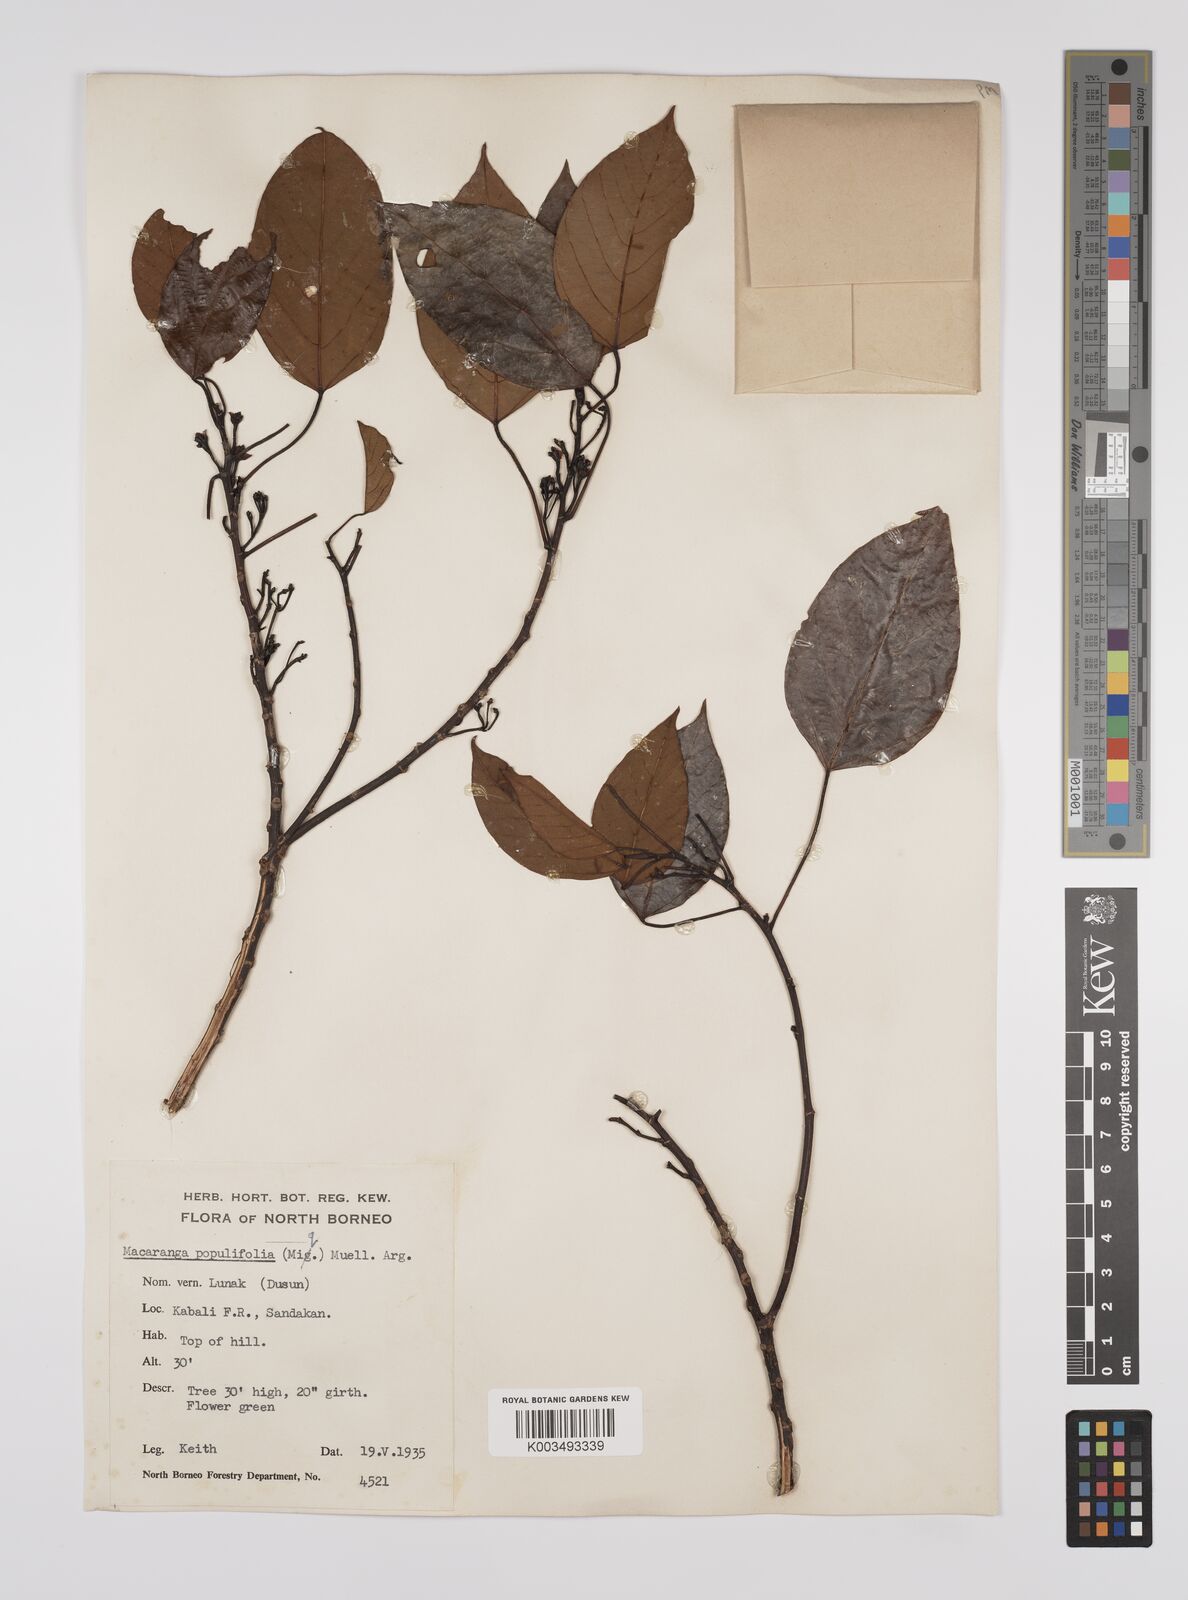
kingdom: Plantae
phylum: Tracheophyta
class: Magnoliopsida
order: Malpighiales
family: Euphorbiaceae
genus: Macaranga
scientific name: Macaranga conifera
